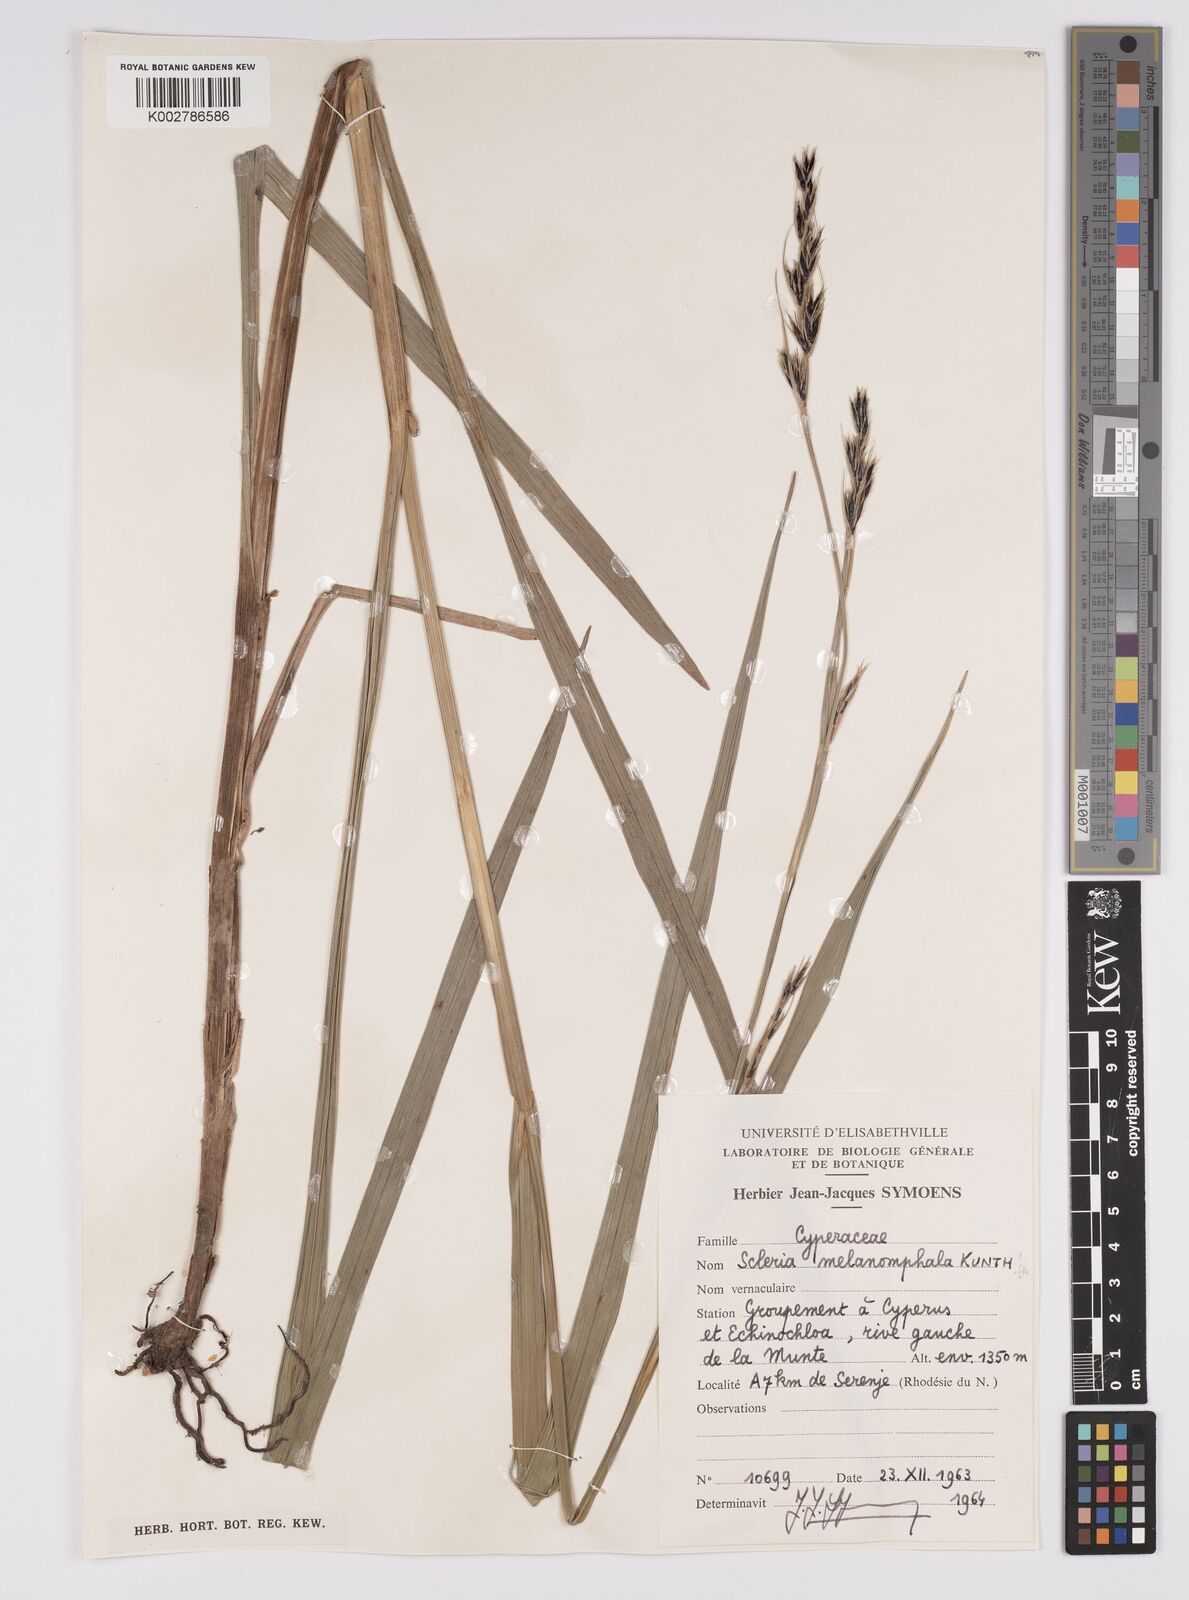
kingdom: Plantae
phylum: Tracheophyta
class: Liliopsida
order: Poales
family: Cyperaceae
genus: Scleria
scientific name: Scleria melanomphala
